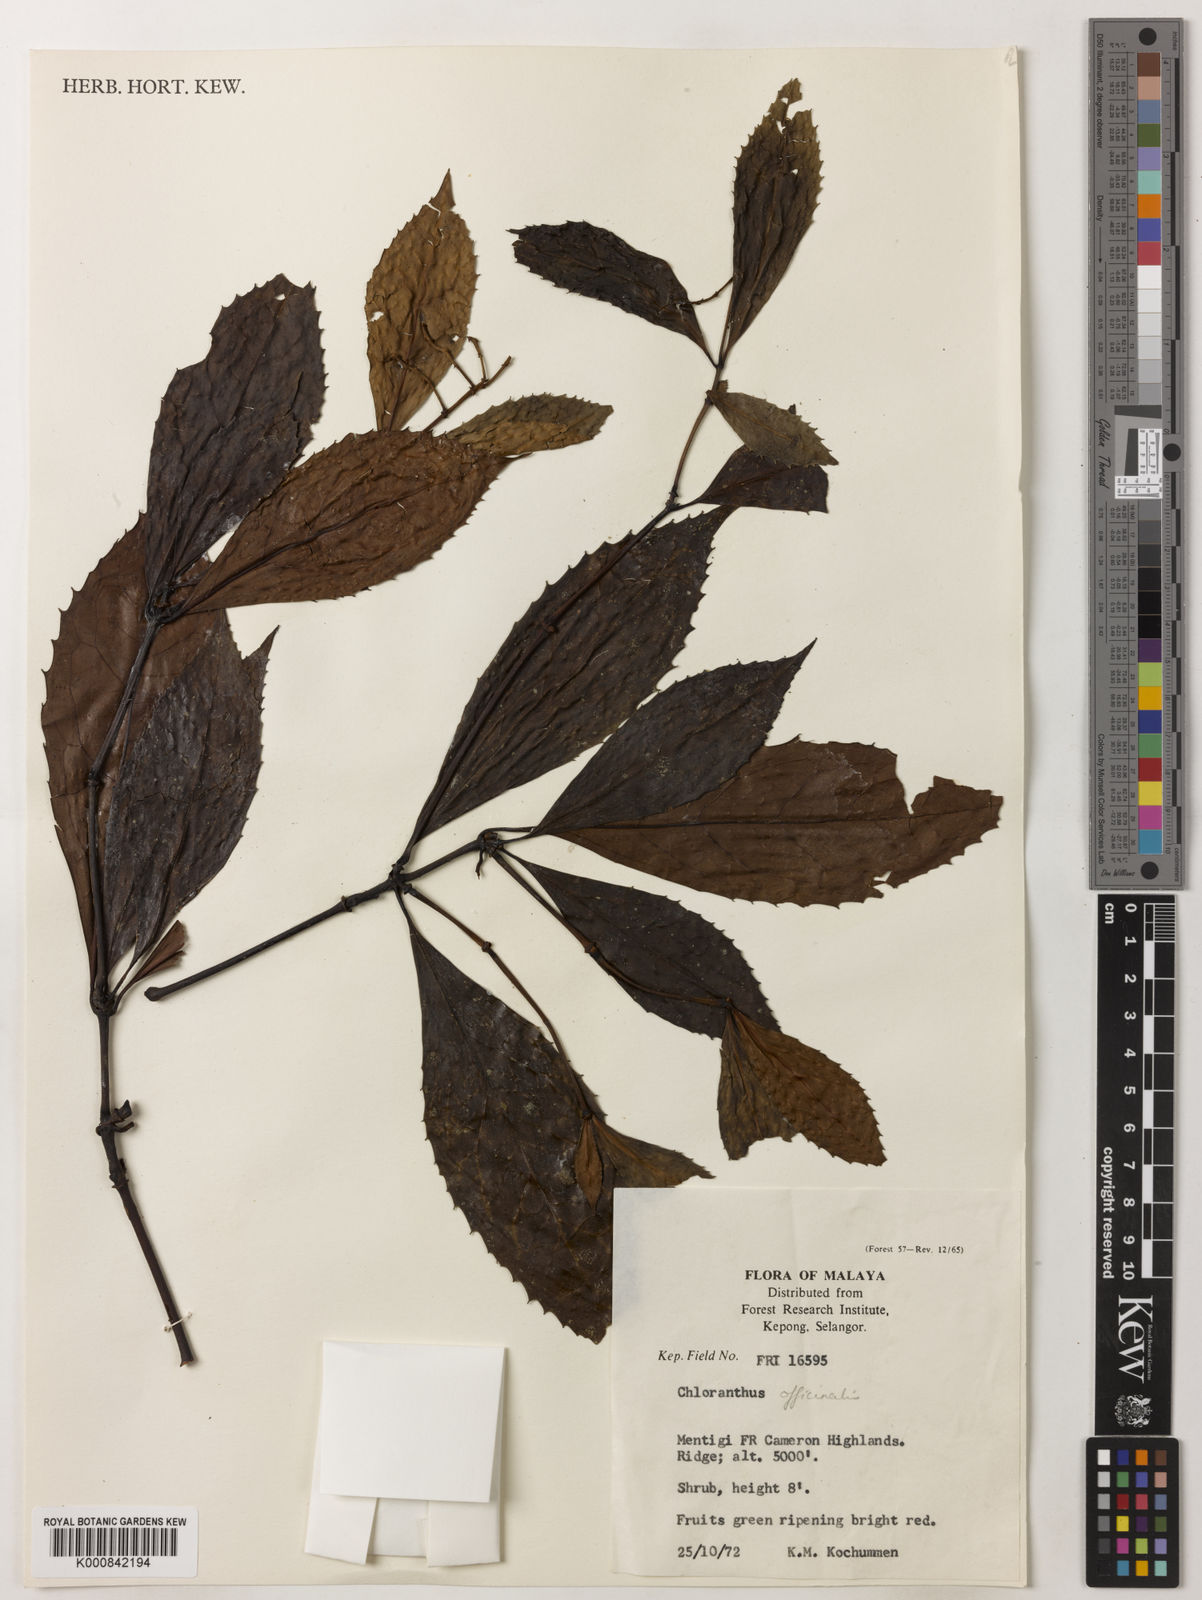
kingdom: Plantae
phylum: Tracheophyta
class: Magnoliopsida
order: Chloranthales
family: Chloranthaceae
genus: Sarcandra
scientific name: Sarcandra glabra
